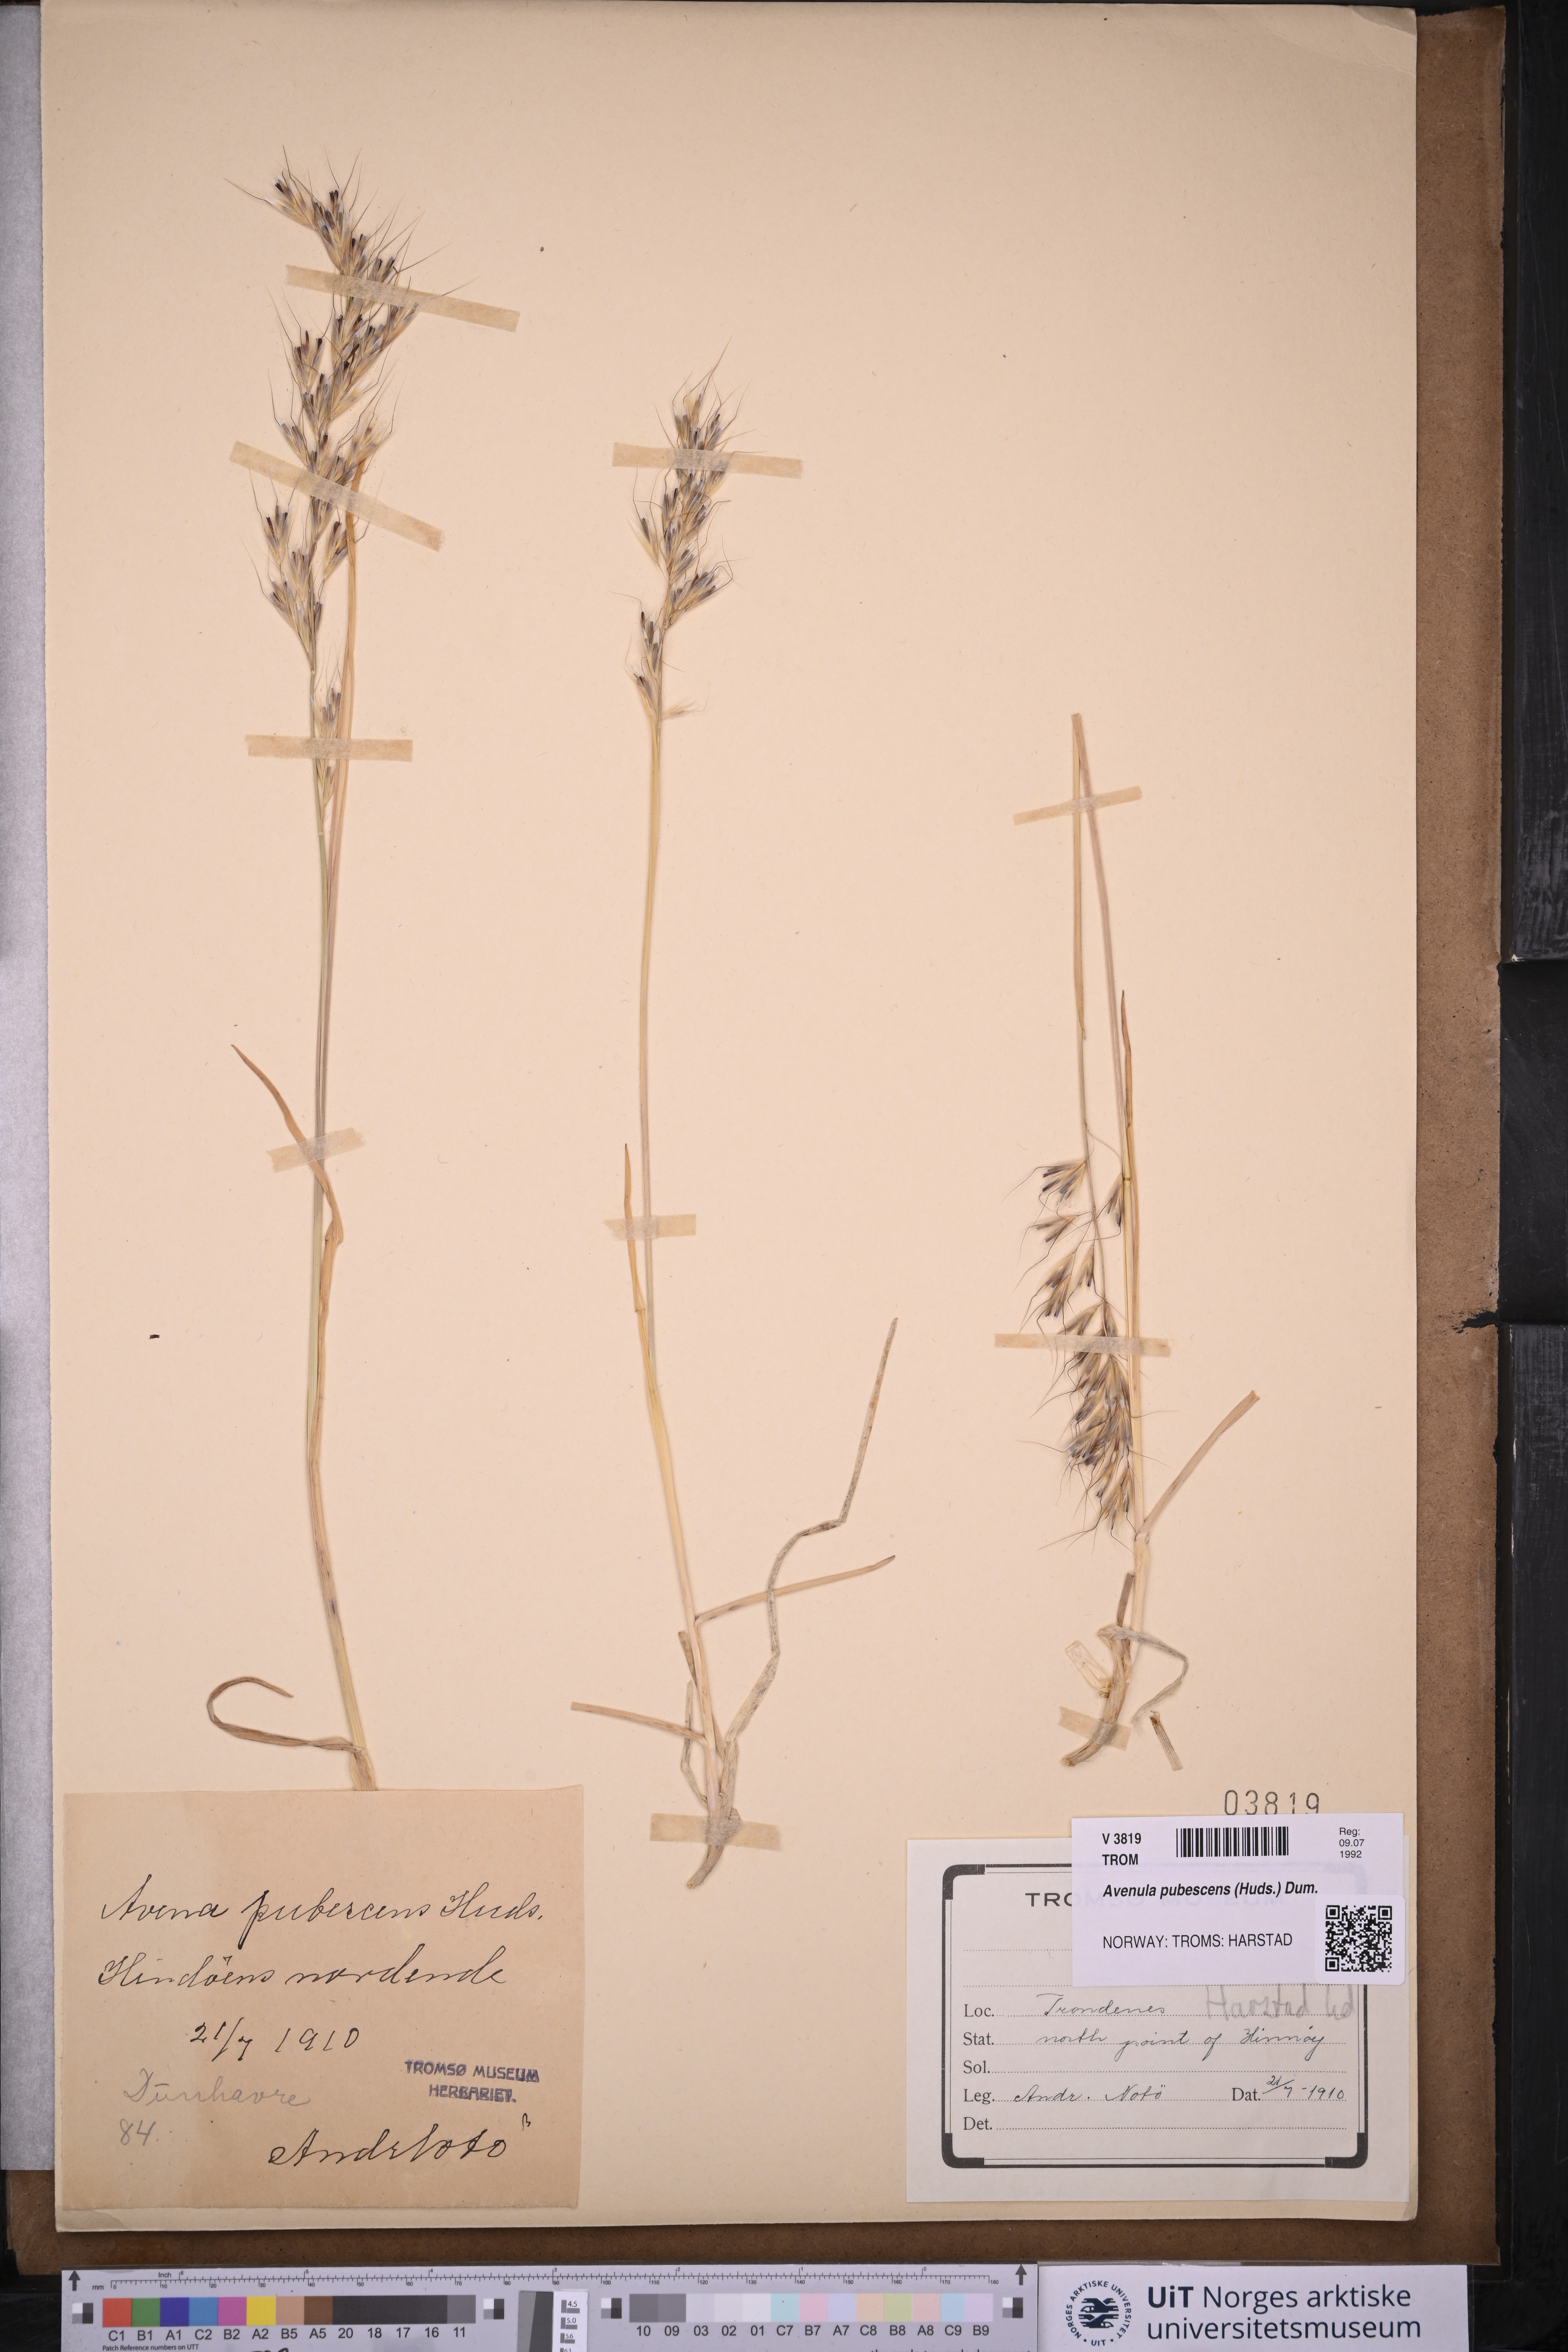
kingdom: Plantae
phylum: Tracheophyta
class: Liliopsida
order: Poales
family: Poaceae
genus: Avenula
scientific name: Avenula pubescens
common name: Downy alpine oatgrass
